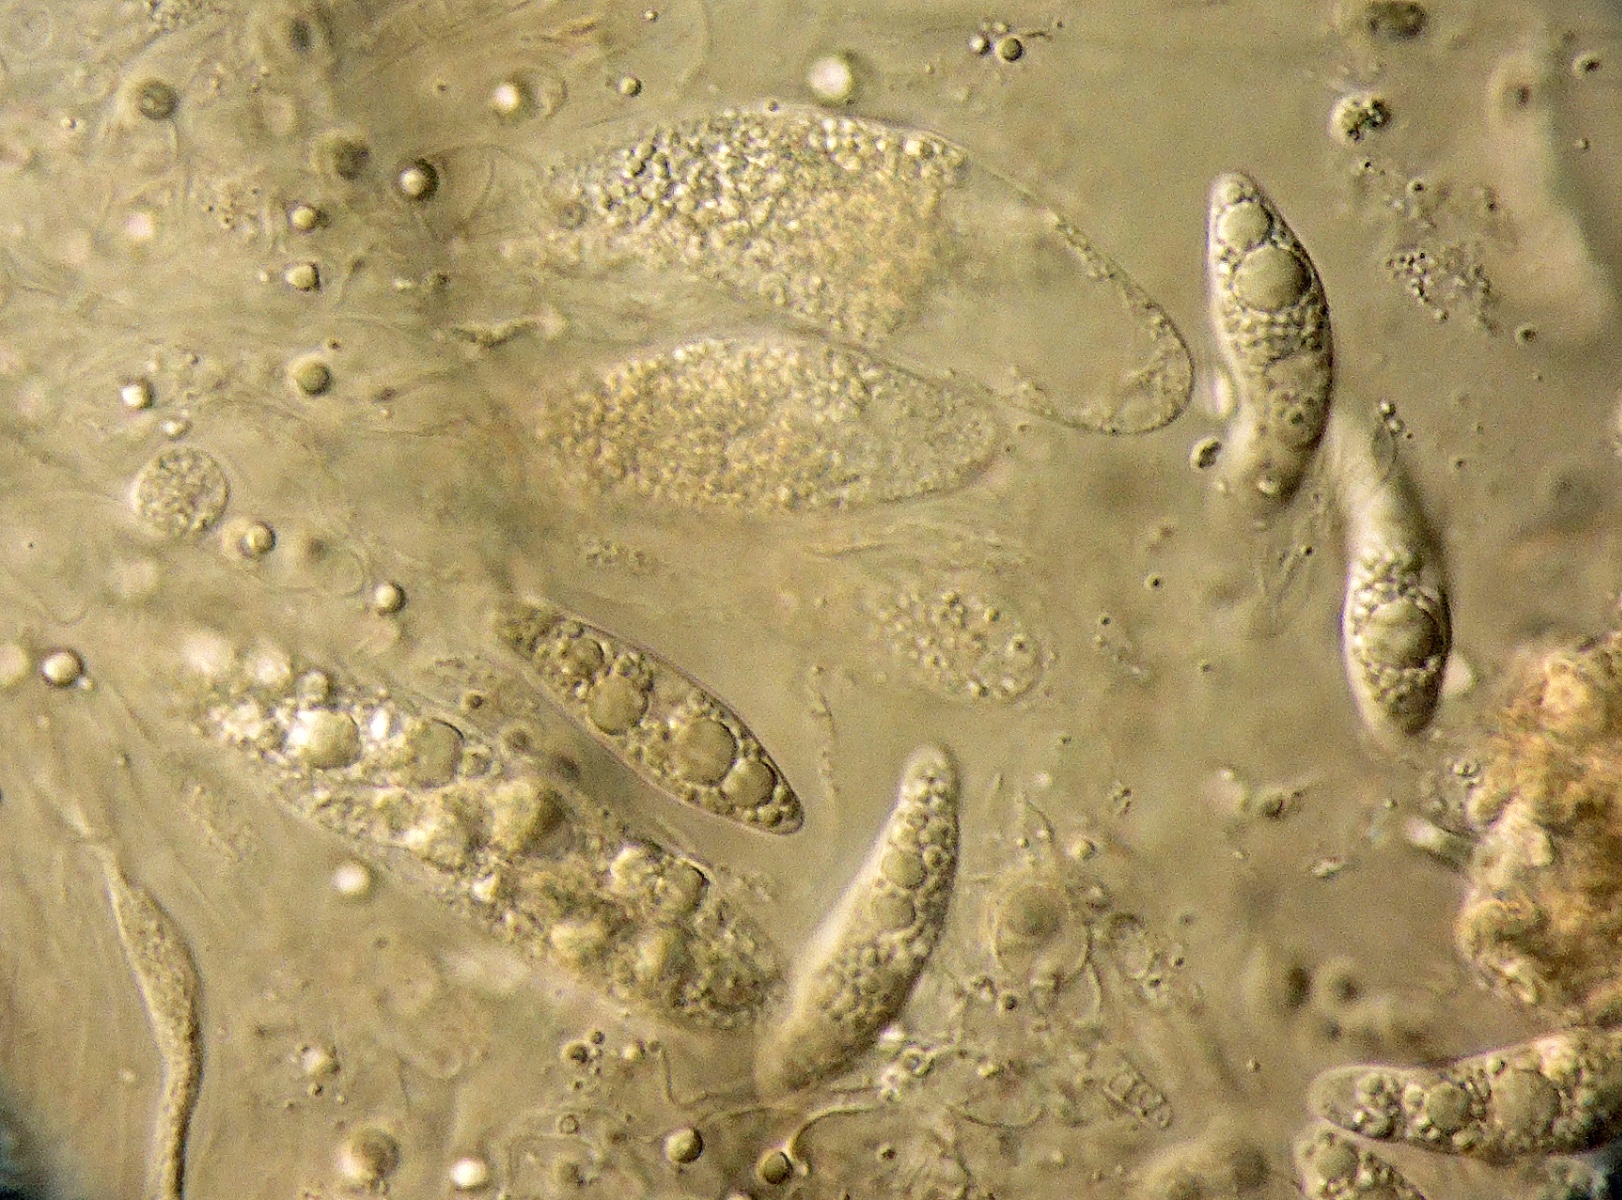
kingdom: Fungi
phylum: Ascomycota
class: Sordariomycetes
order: Xylariales
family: Apiosporaceae
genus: Apiospora
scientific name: Apiospora hysterina
